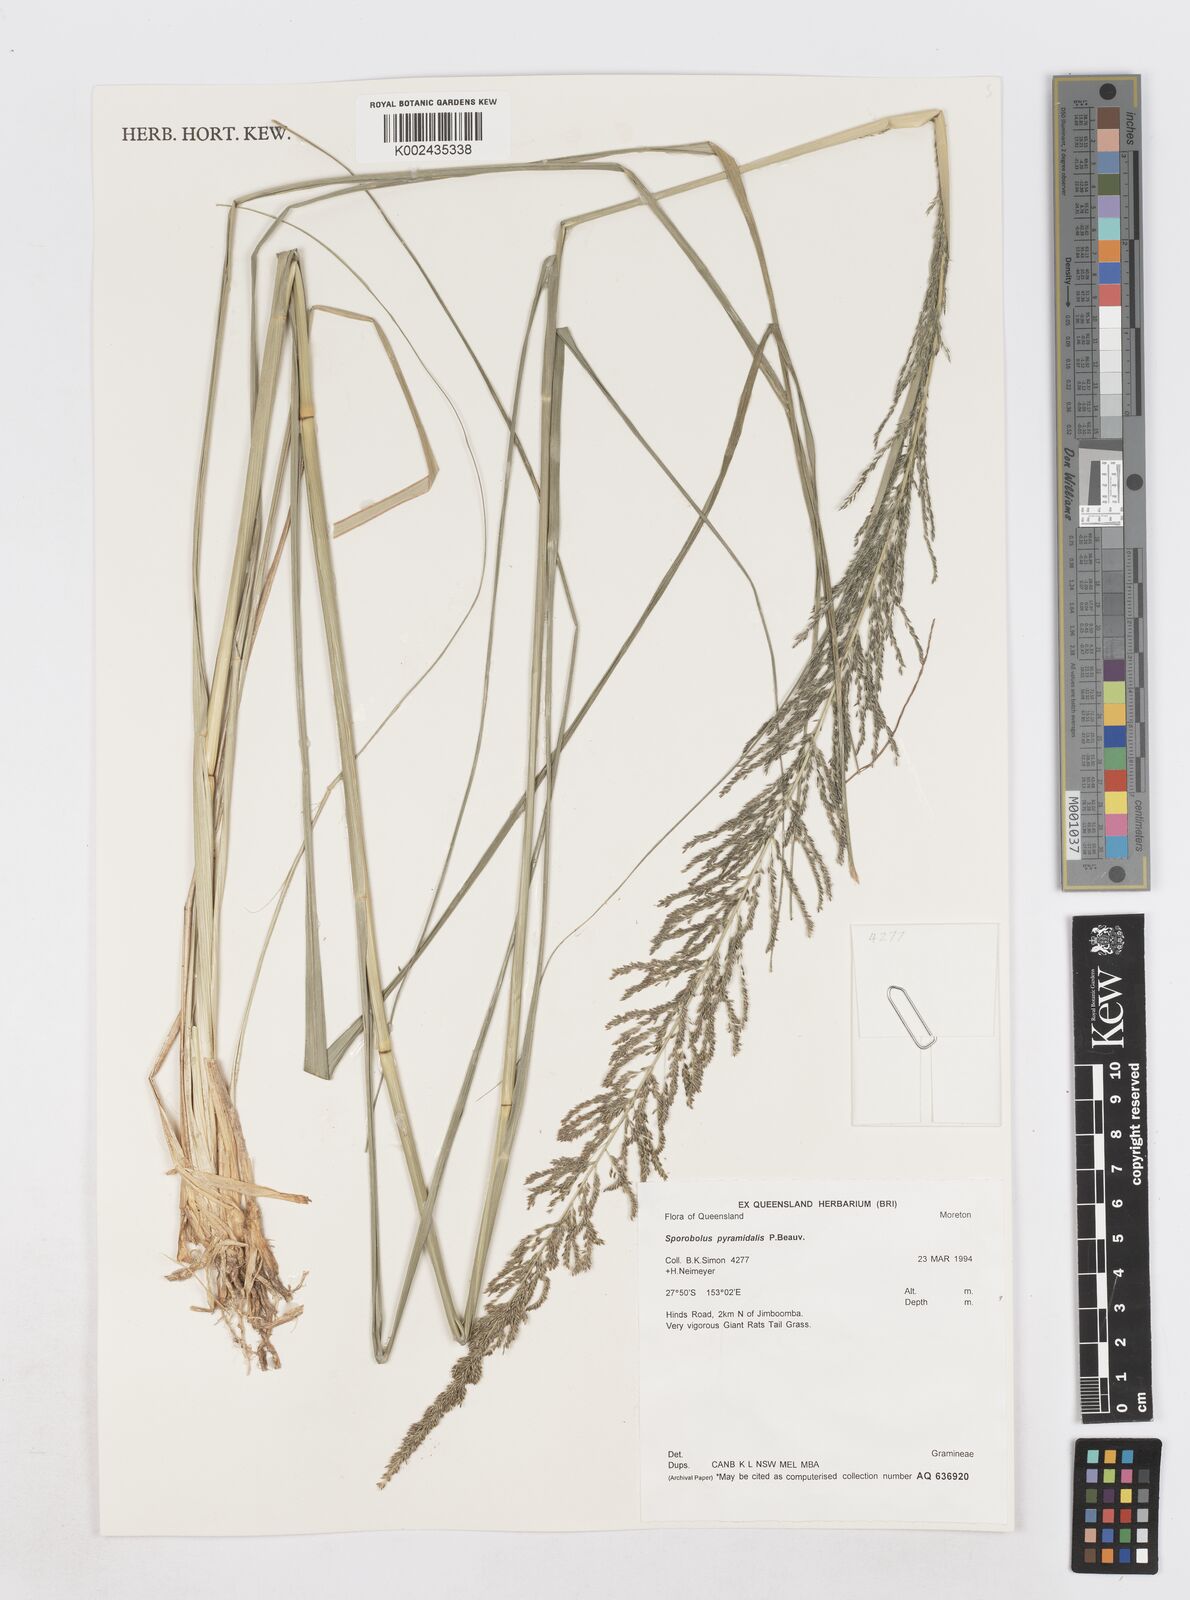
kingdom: Plantae
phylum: Tracheophyta
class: Liliopsida
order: Poales
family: Poaceae
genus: Sporobolus
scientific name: Sporobolus pyramidalis
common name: West indian dropseed
